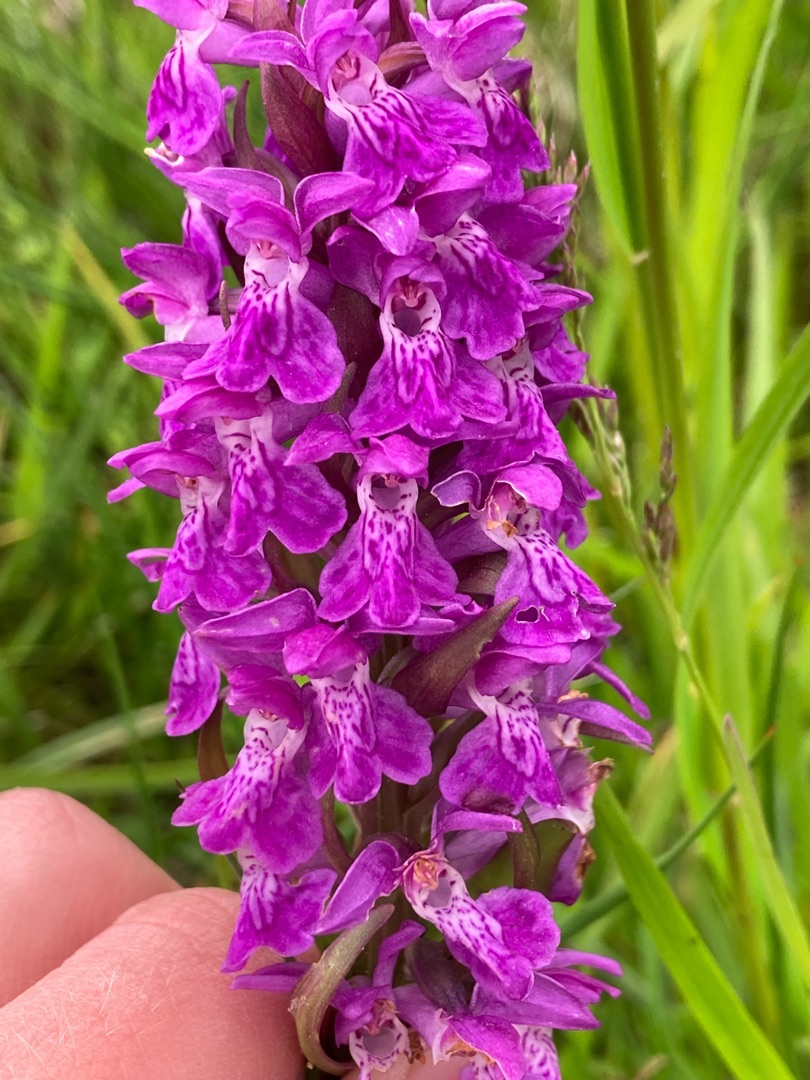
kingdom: Plantae
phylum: Tracheophyta
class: Liliopsida
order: Asparagales
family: Orchidaceae
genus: Dactylorhiza
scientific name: Dactylorhiza majalis
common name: Maj-gøgeurt
